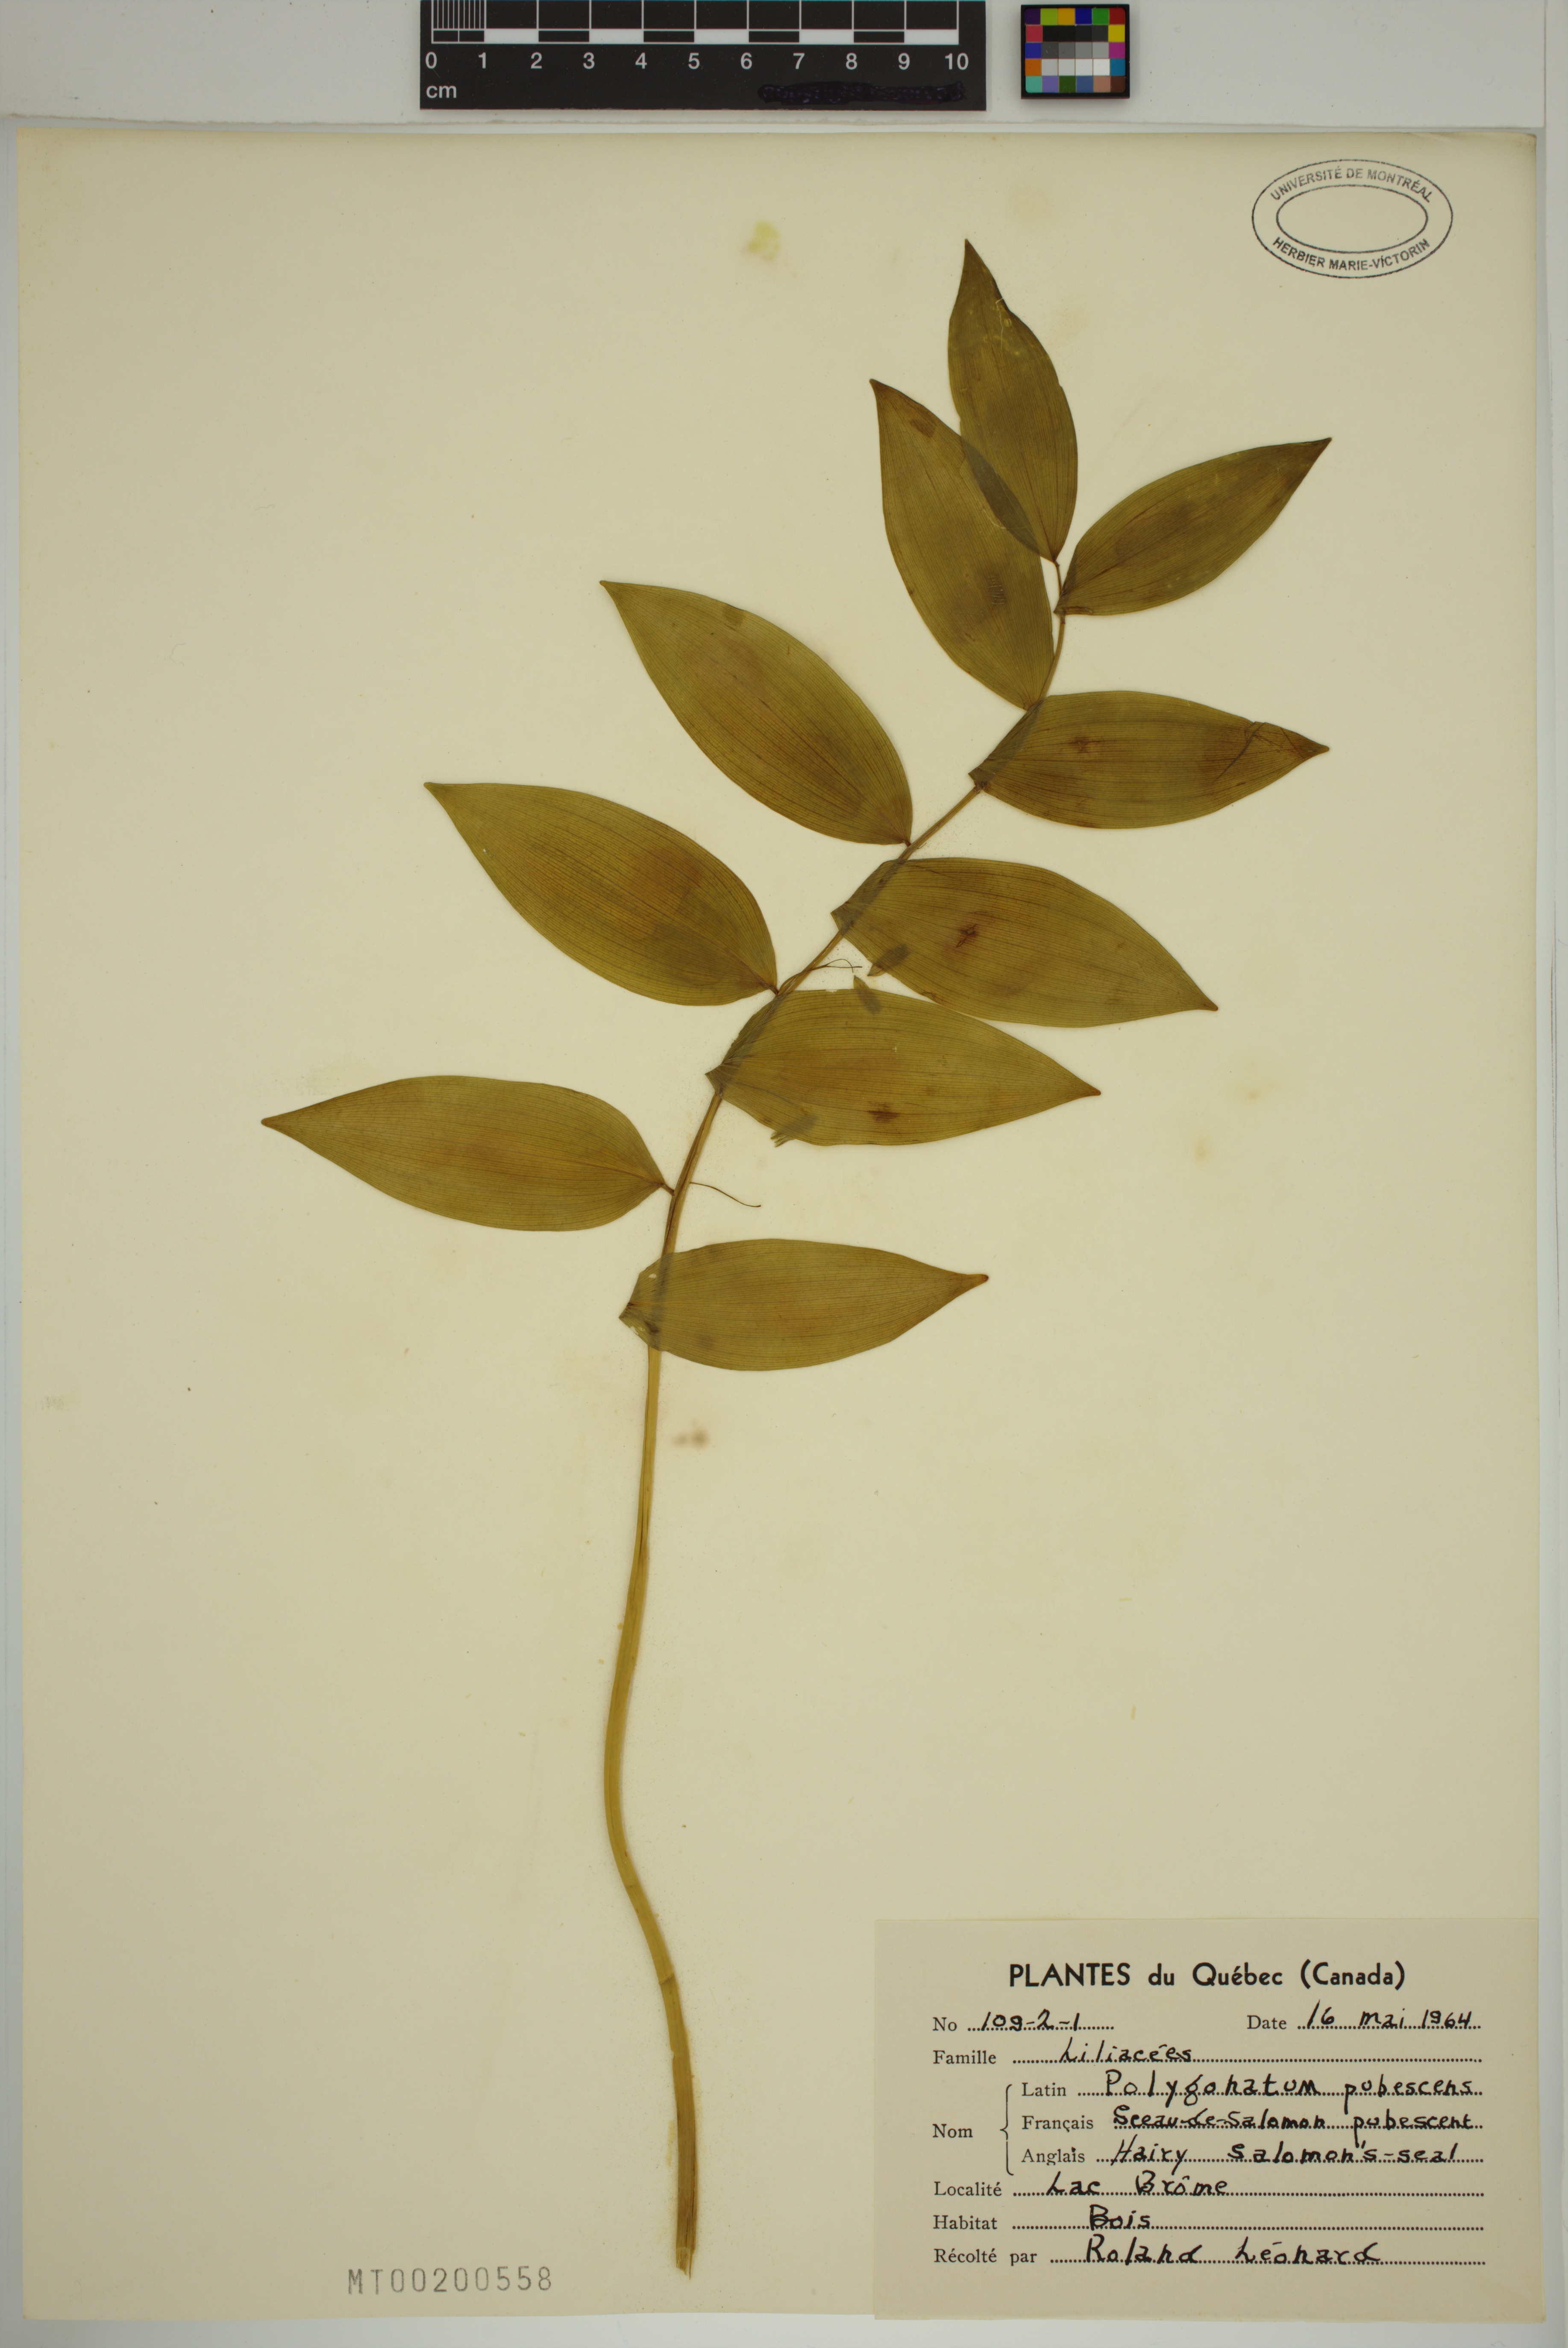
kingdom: Plantae
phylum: Tracheophyta
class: Liliopsida
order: Asparagales
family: Asparagaceae
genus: Polygonatum
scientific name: Polygonatum pubescens
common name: Downy solomon's seal
